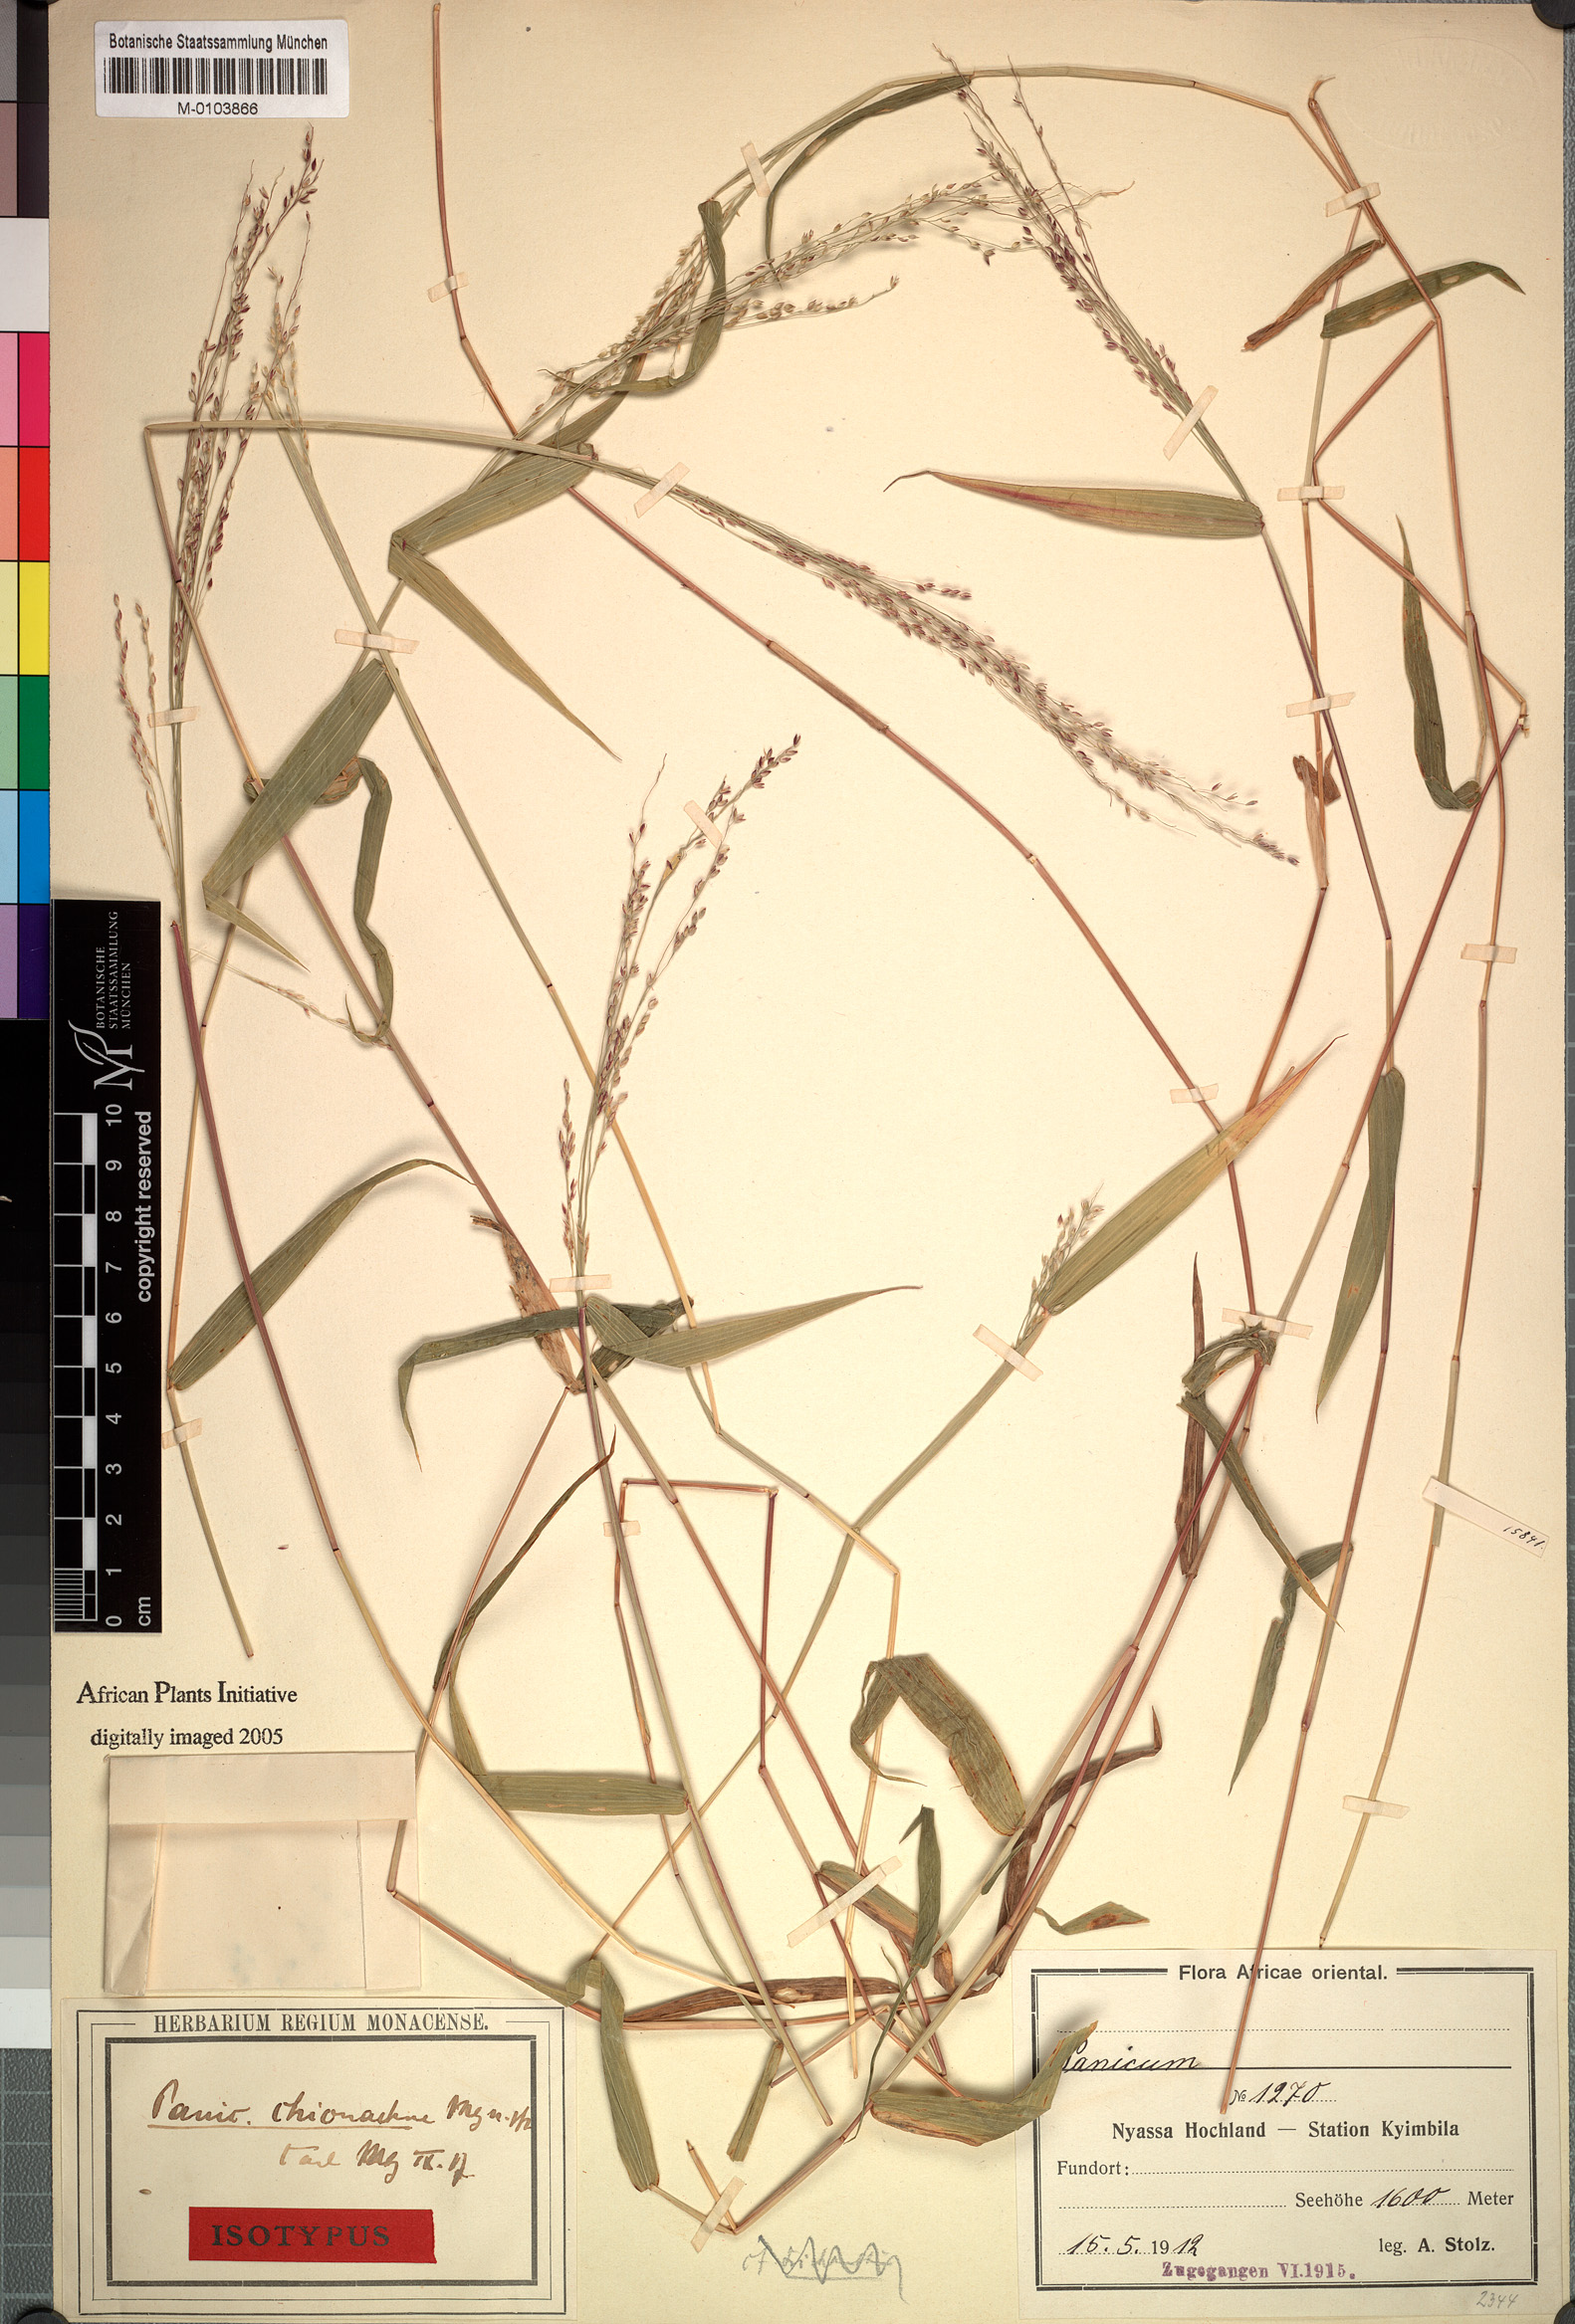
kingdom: Plantae
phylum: Tracheophyta
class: Liliopsida
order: Poales
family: Poaceae
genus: Panicum
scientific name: Panicum chionachne
